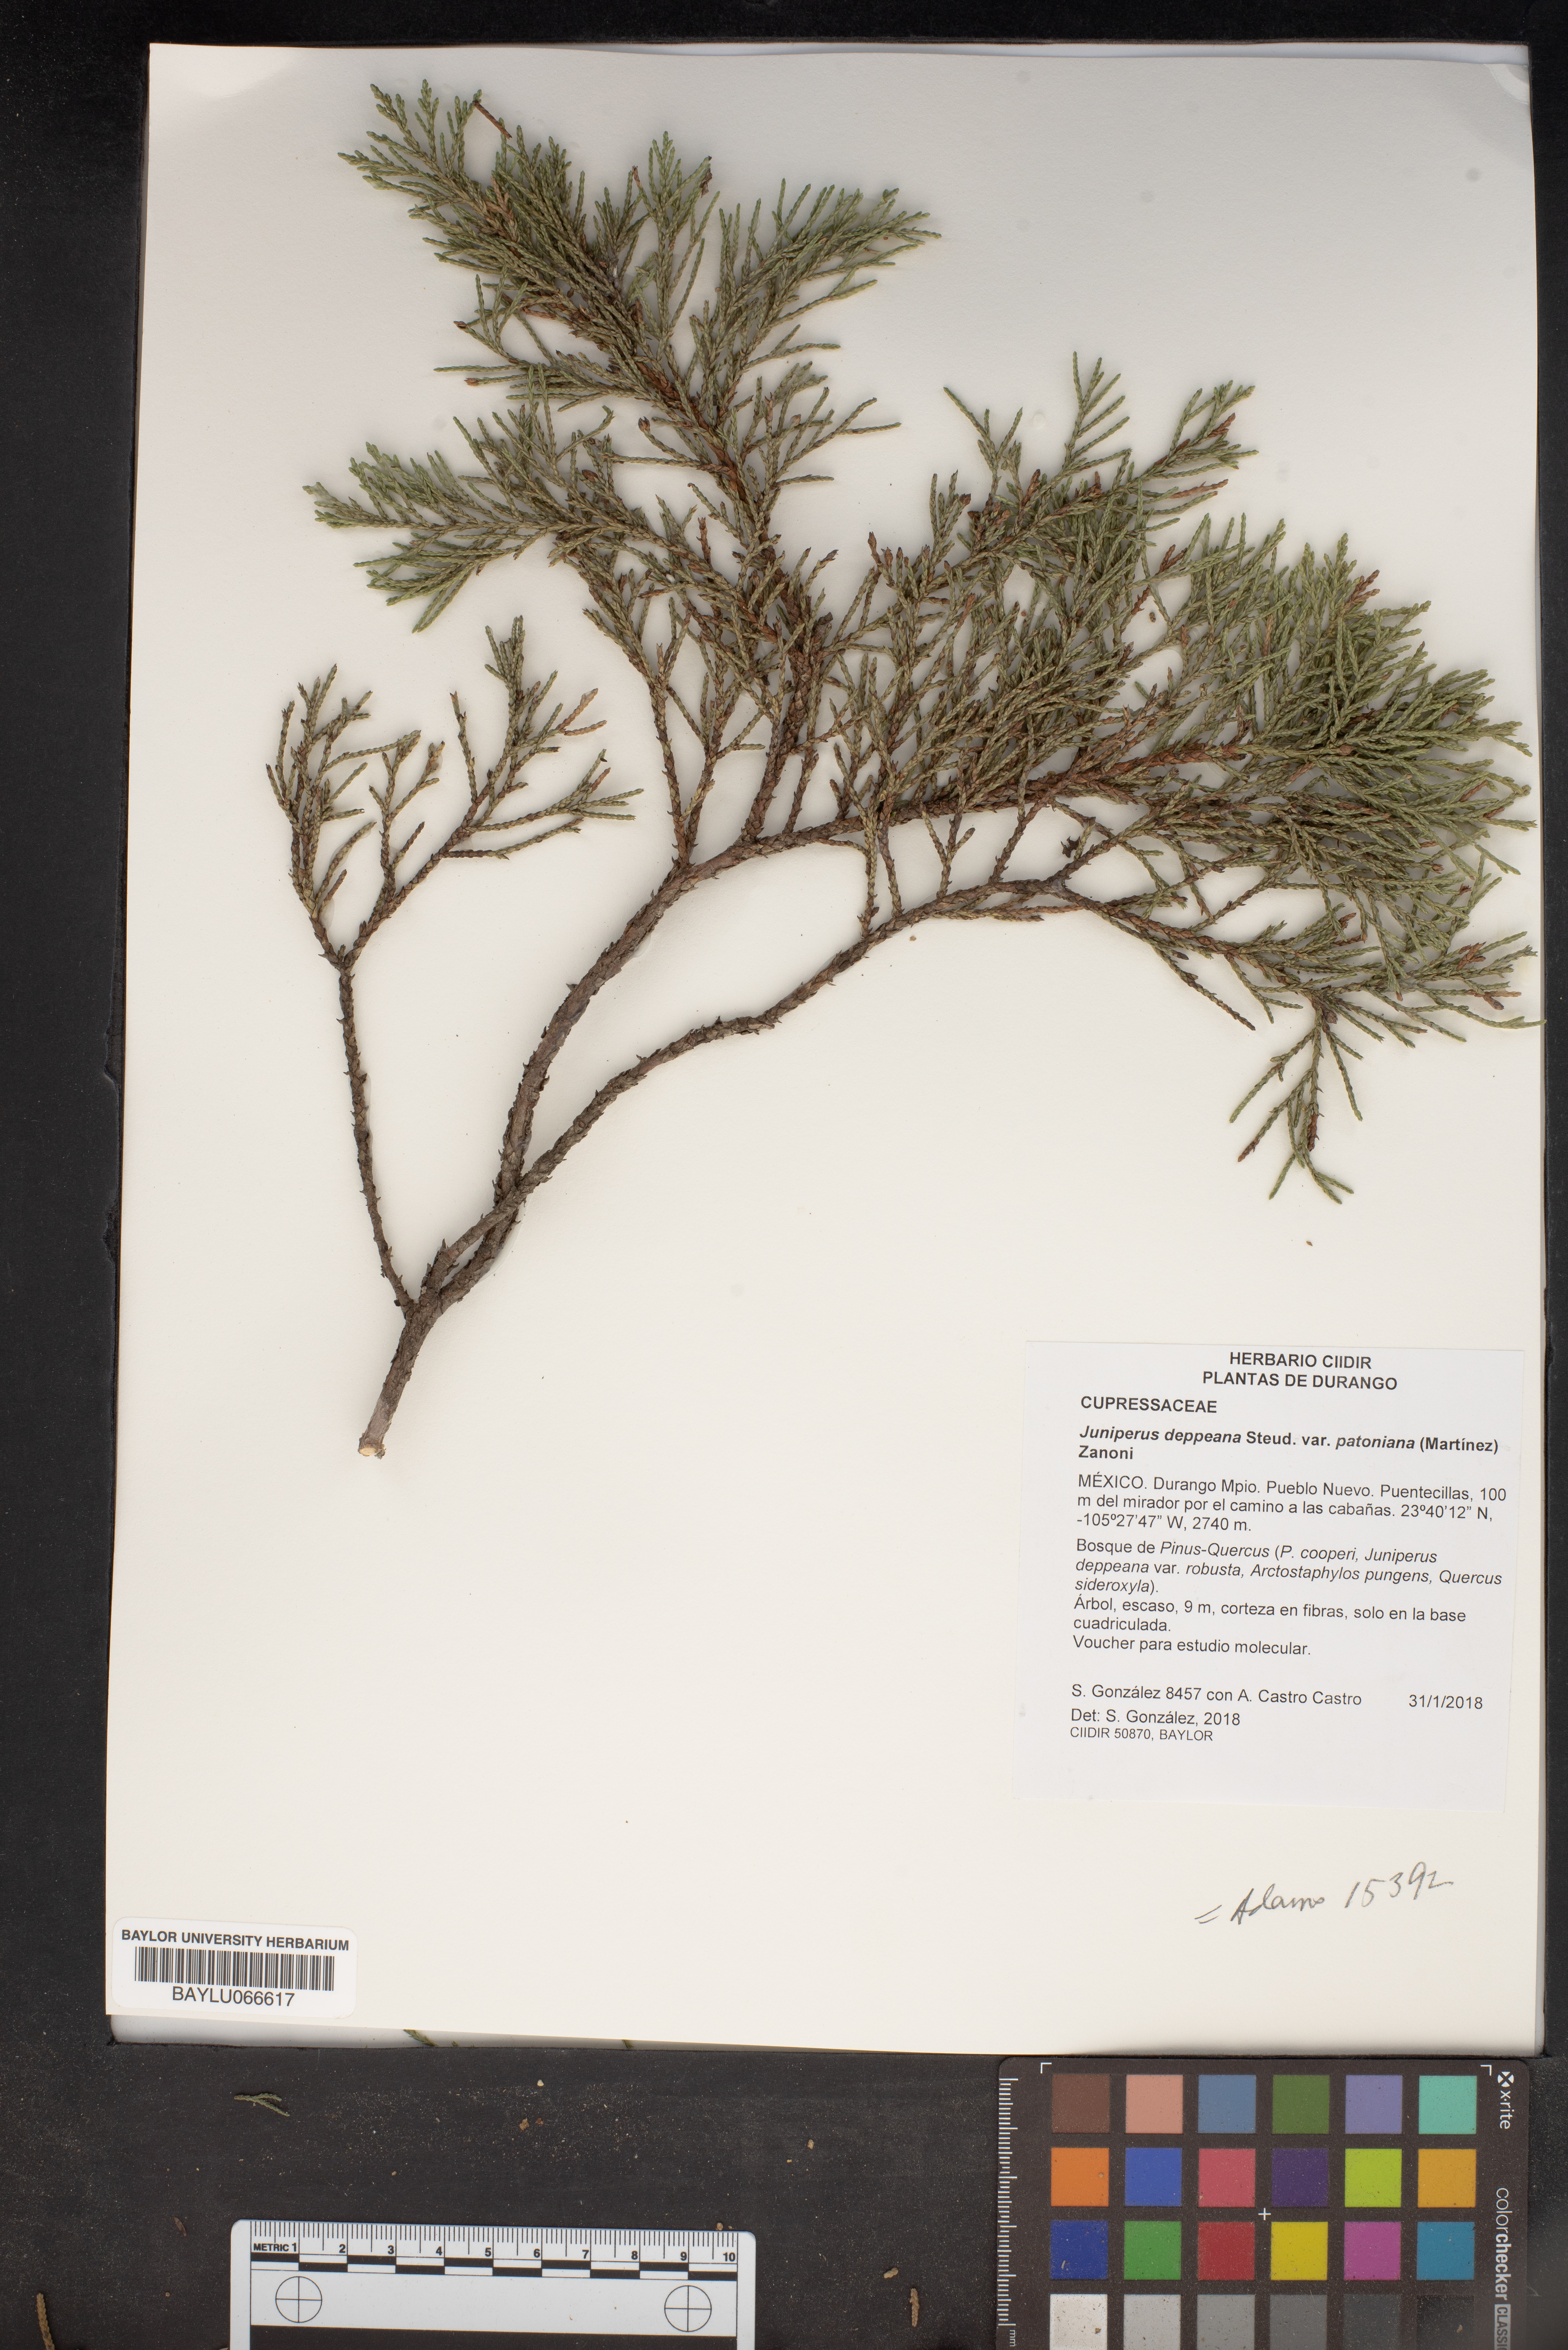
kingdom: Plantae
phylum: Tracheophyta
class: Pinopsida
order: Pinales
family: Cupressaceae
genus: Juniperus
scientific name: Juniperus deppeana
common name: Alligator juniper
